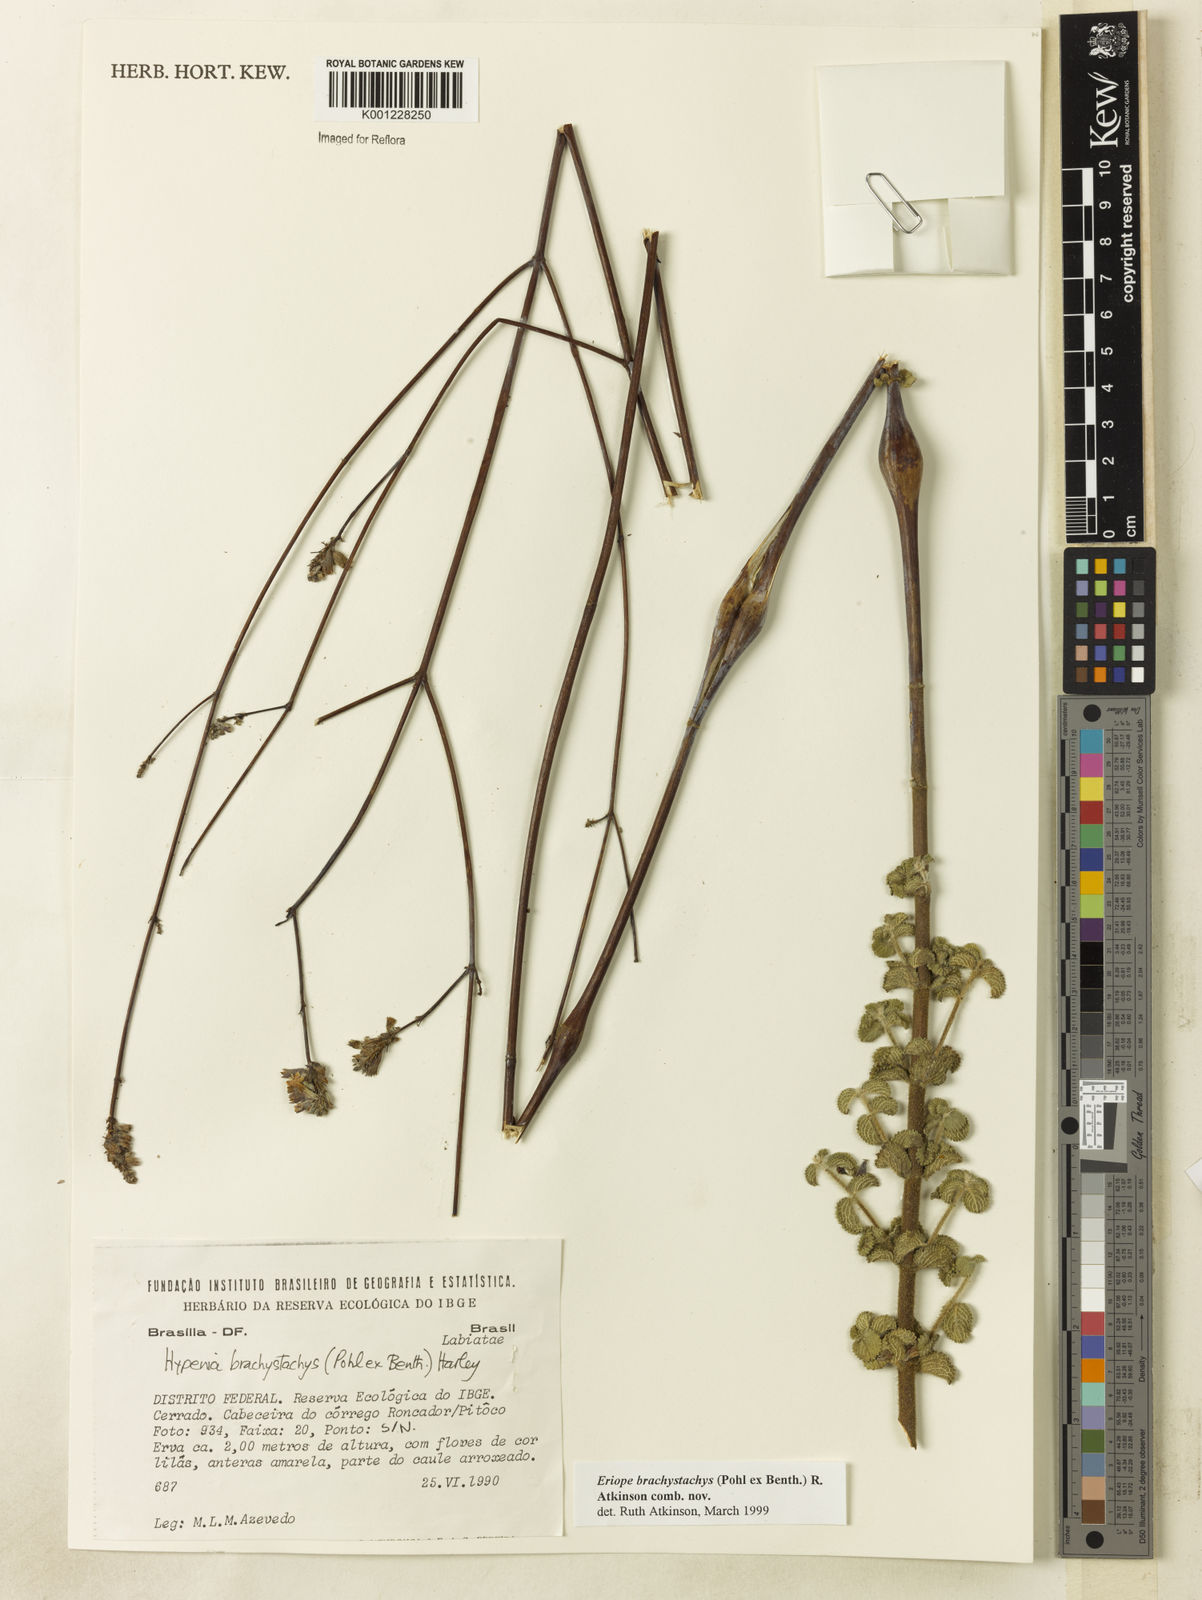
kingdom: Plantae
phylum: Tracheophyta
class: Magnoliopsida
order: Lamiales
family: Lamiaceae
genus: Hypenia
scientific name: Hypenia brachystachys
